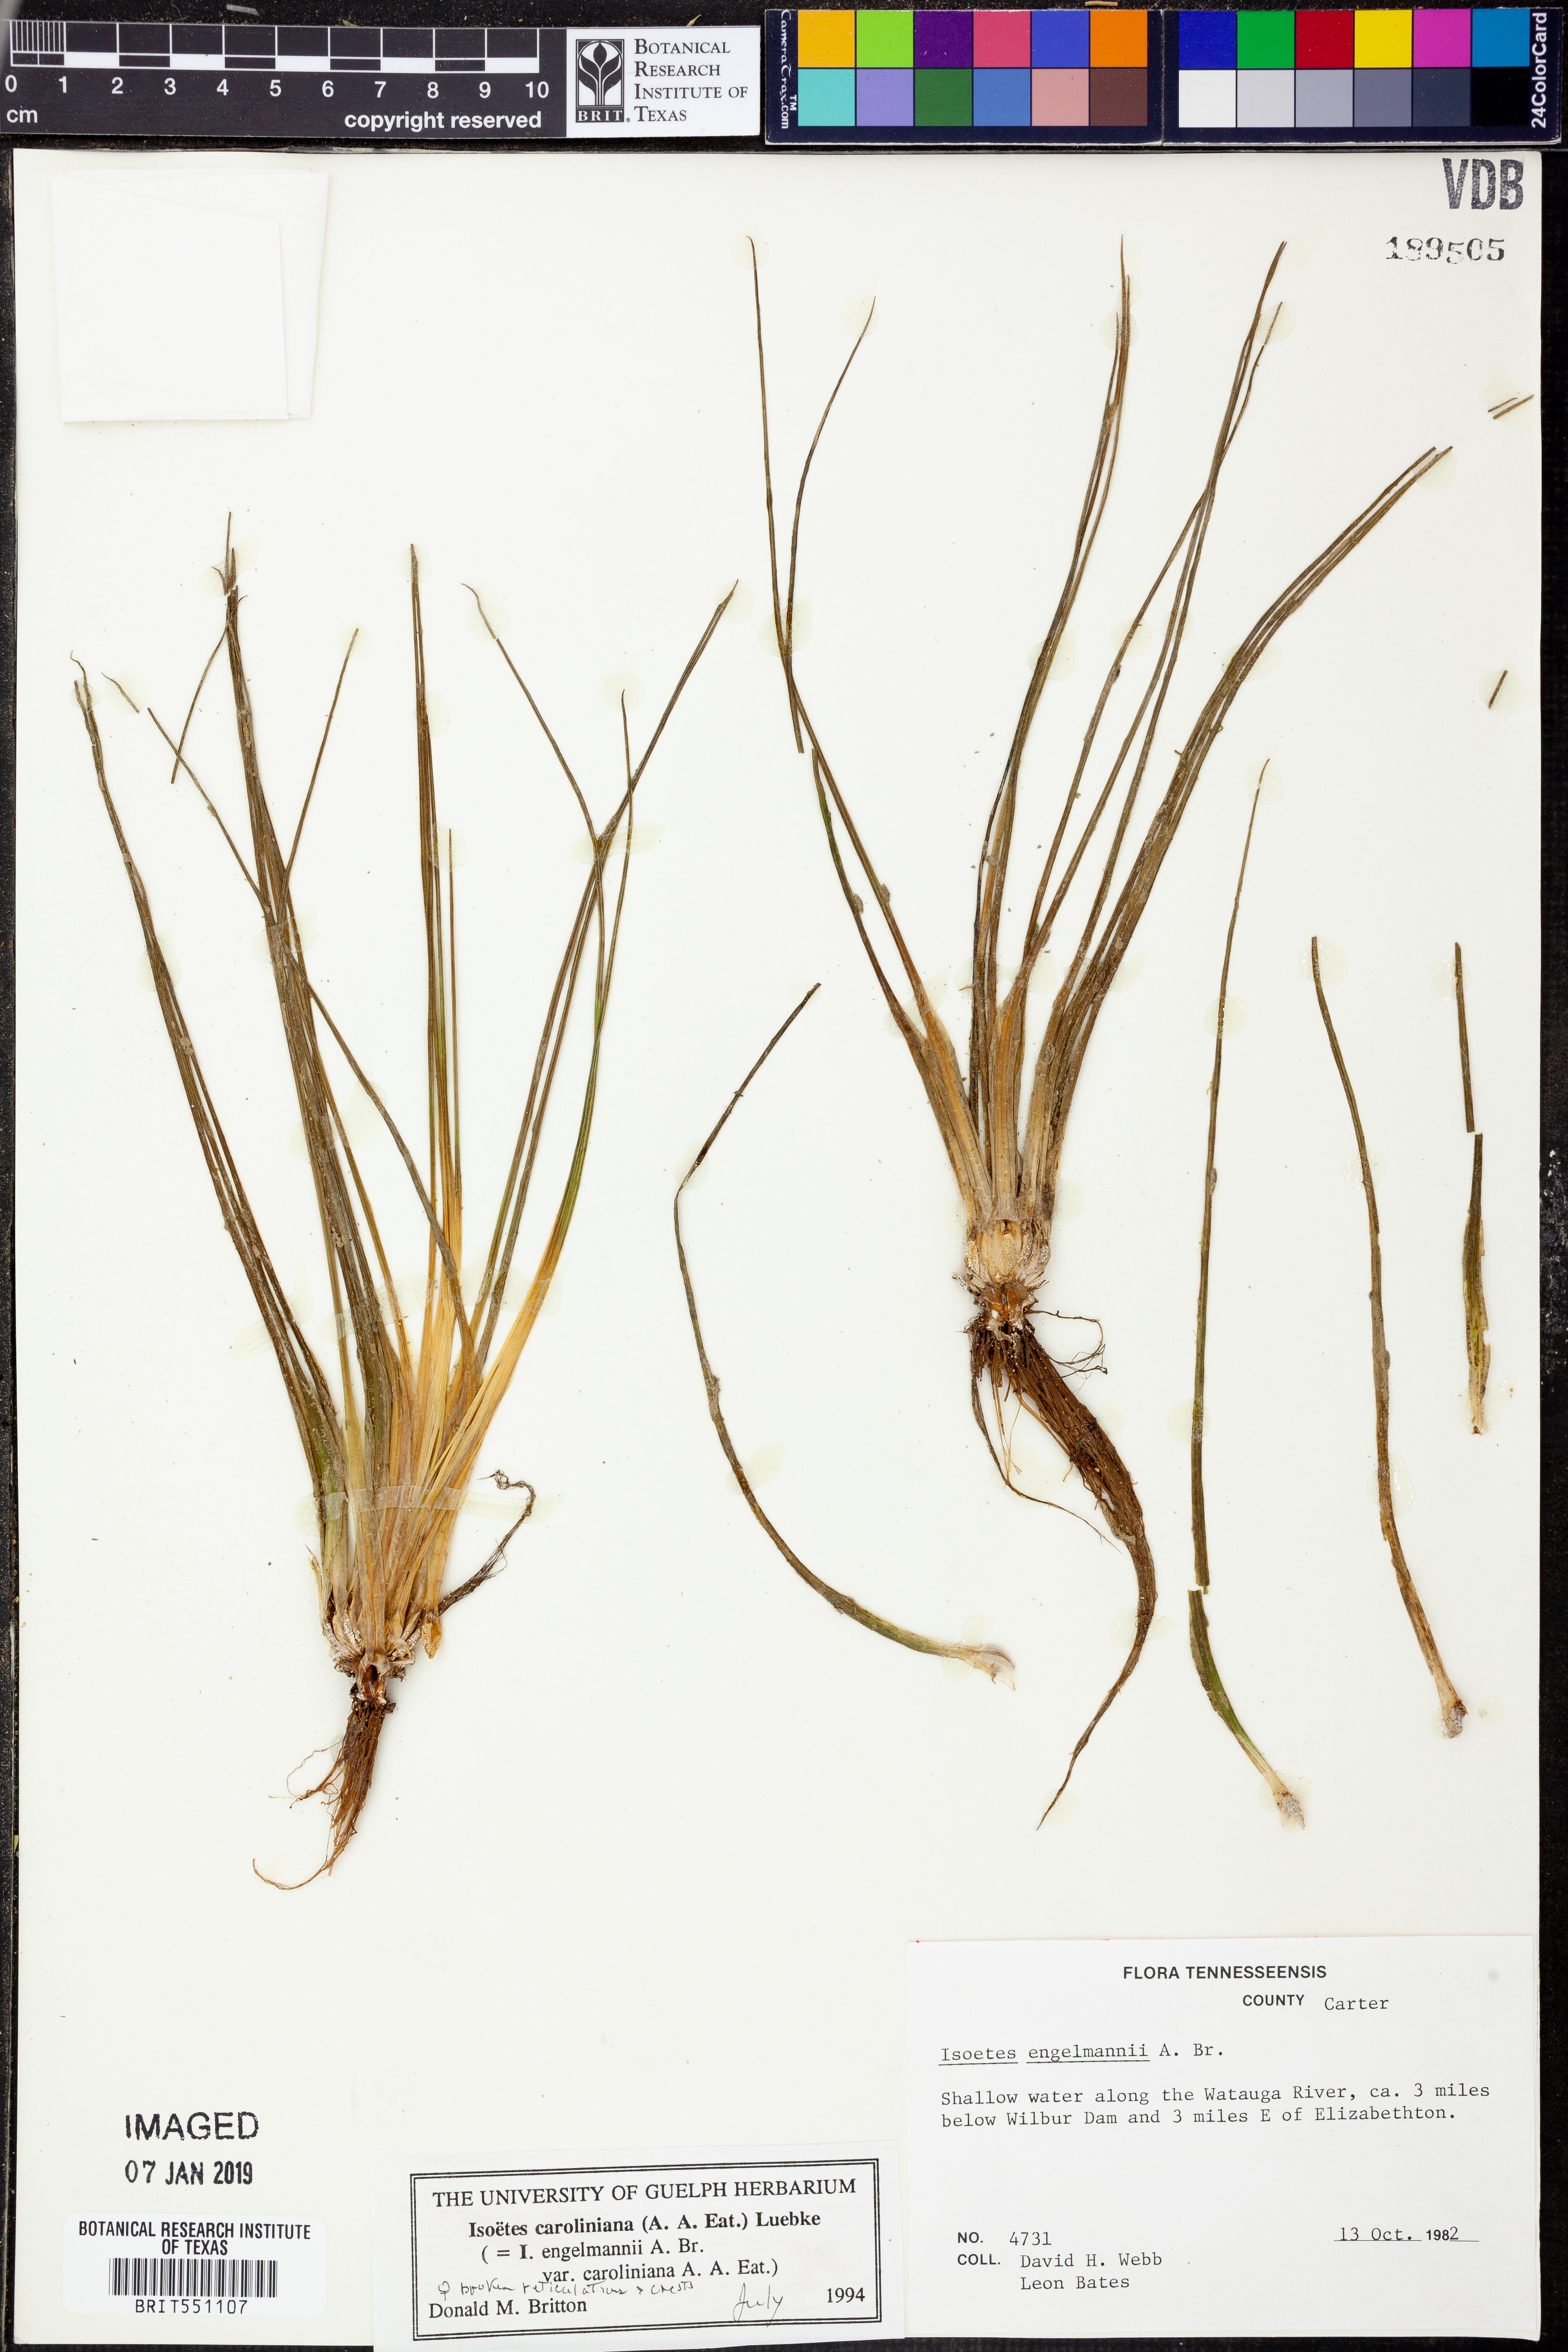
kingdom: Plantae
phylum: Tracheophyta
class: Lycopodiopsida
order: Isoetales
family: Isoetaceae
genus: Isoetes
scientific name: Isoetes caroliniana
